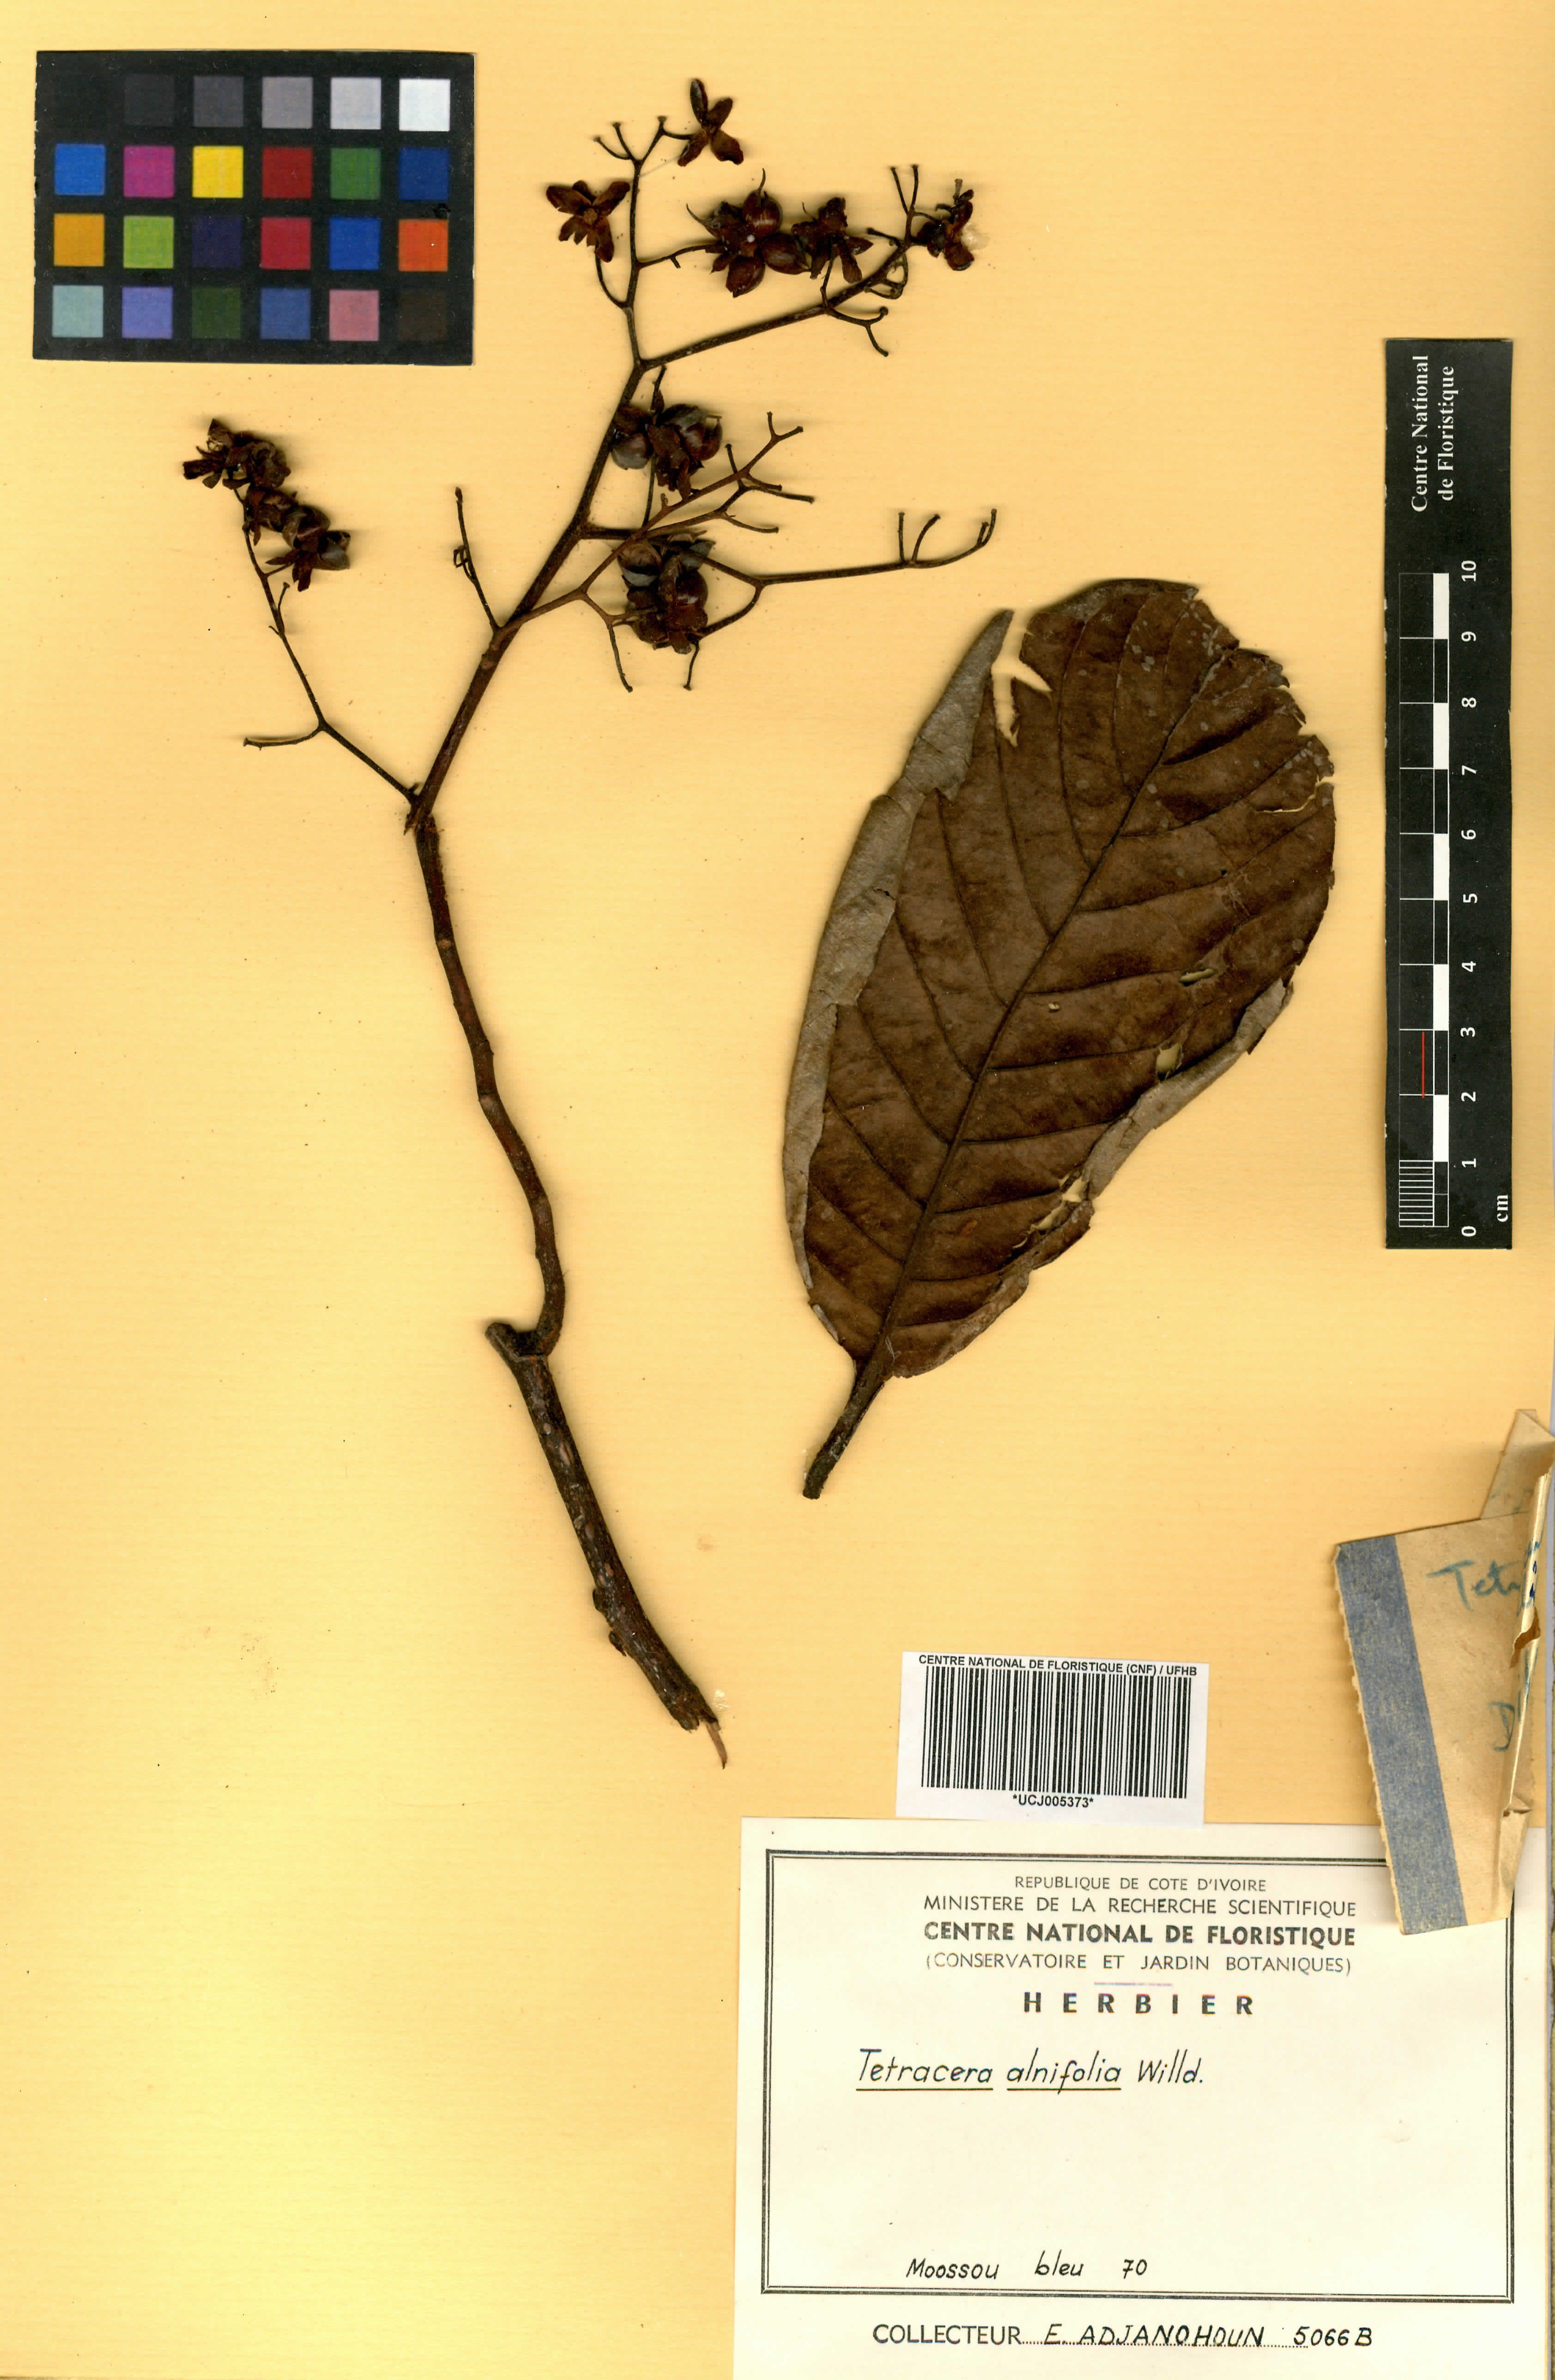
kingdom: Plantae
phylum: Tracheophyta
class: Magnoliopsida
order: Dilleniales
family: Dilleniaceae
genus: Tetracera
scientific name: Tetracera alnifolia
